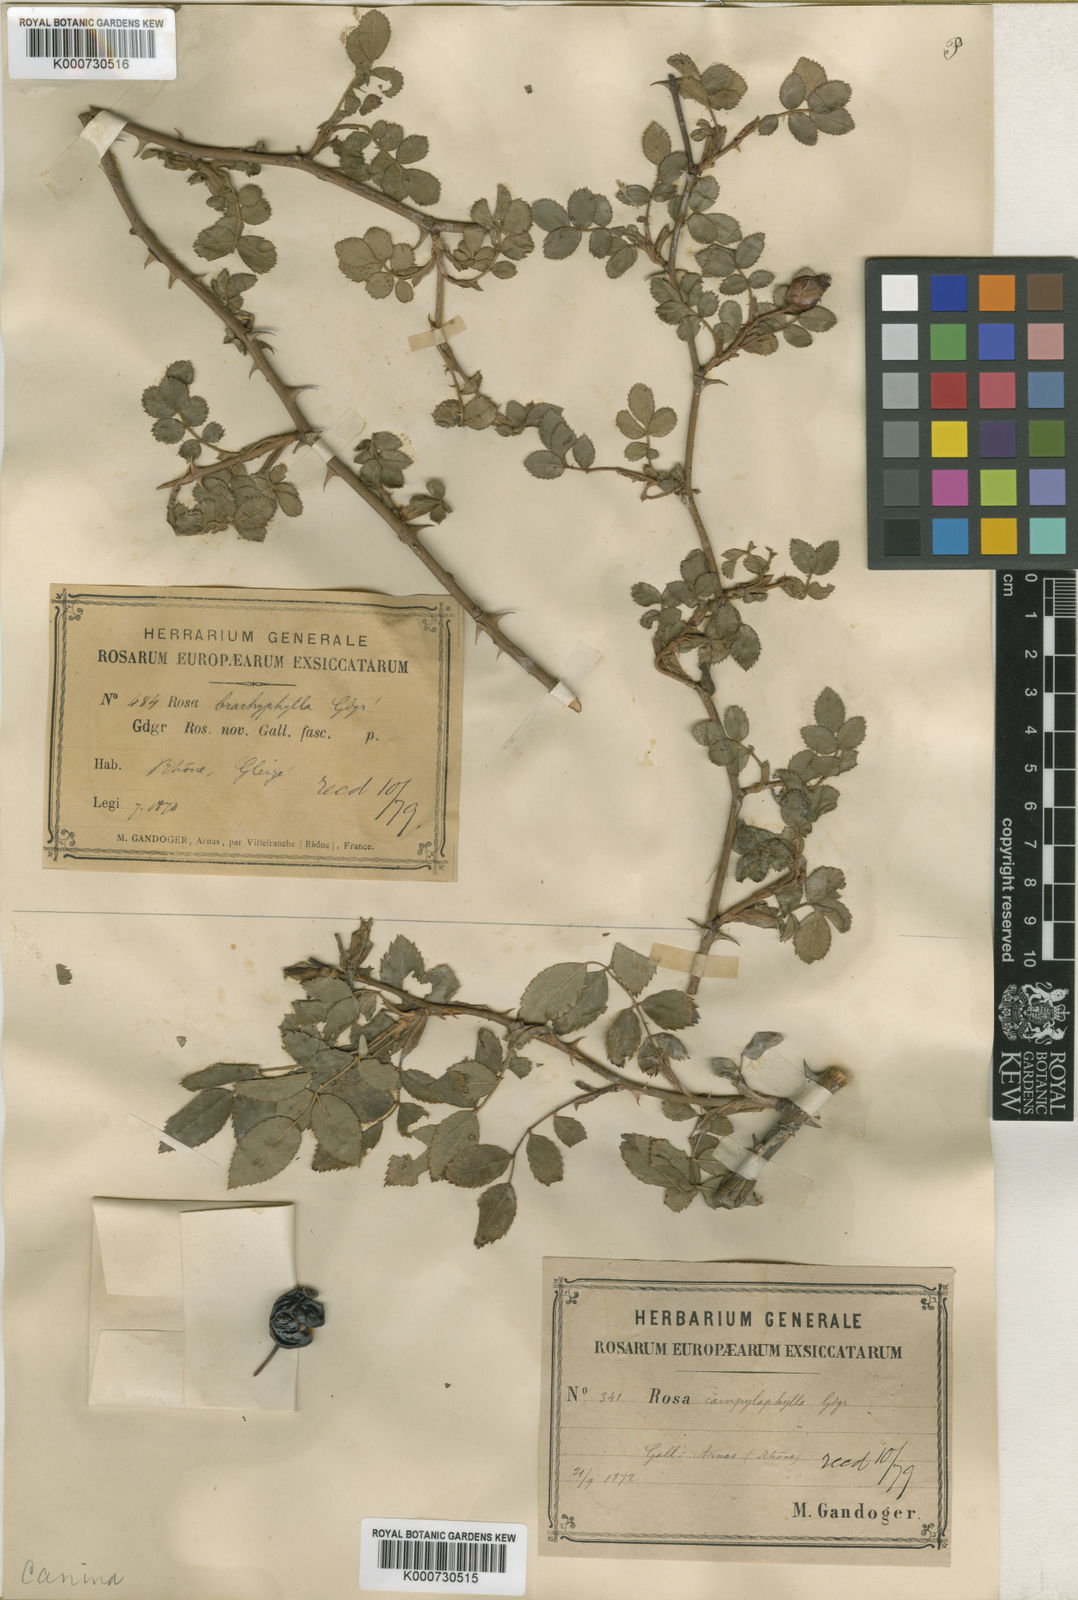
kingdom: Plantae
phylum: Tracheophyta
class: Magnoliopsida
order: Rosales
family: Rosaceae
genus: Rosa
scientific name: Rosa canina
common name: Dog rose
